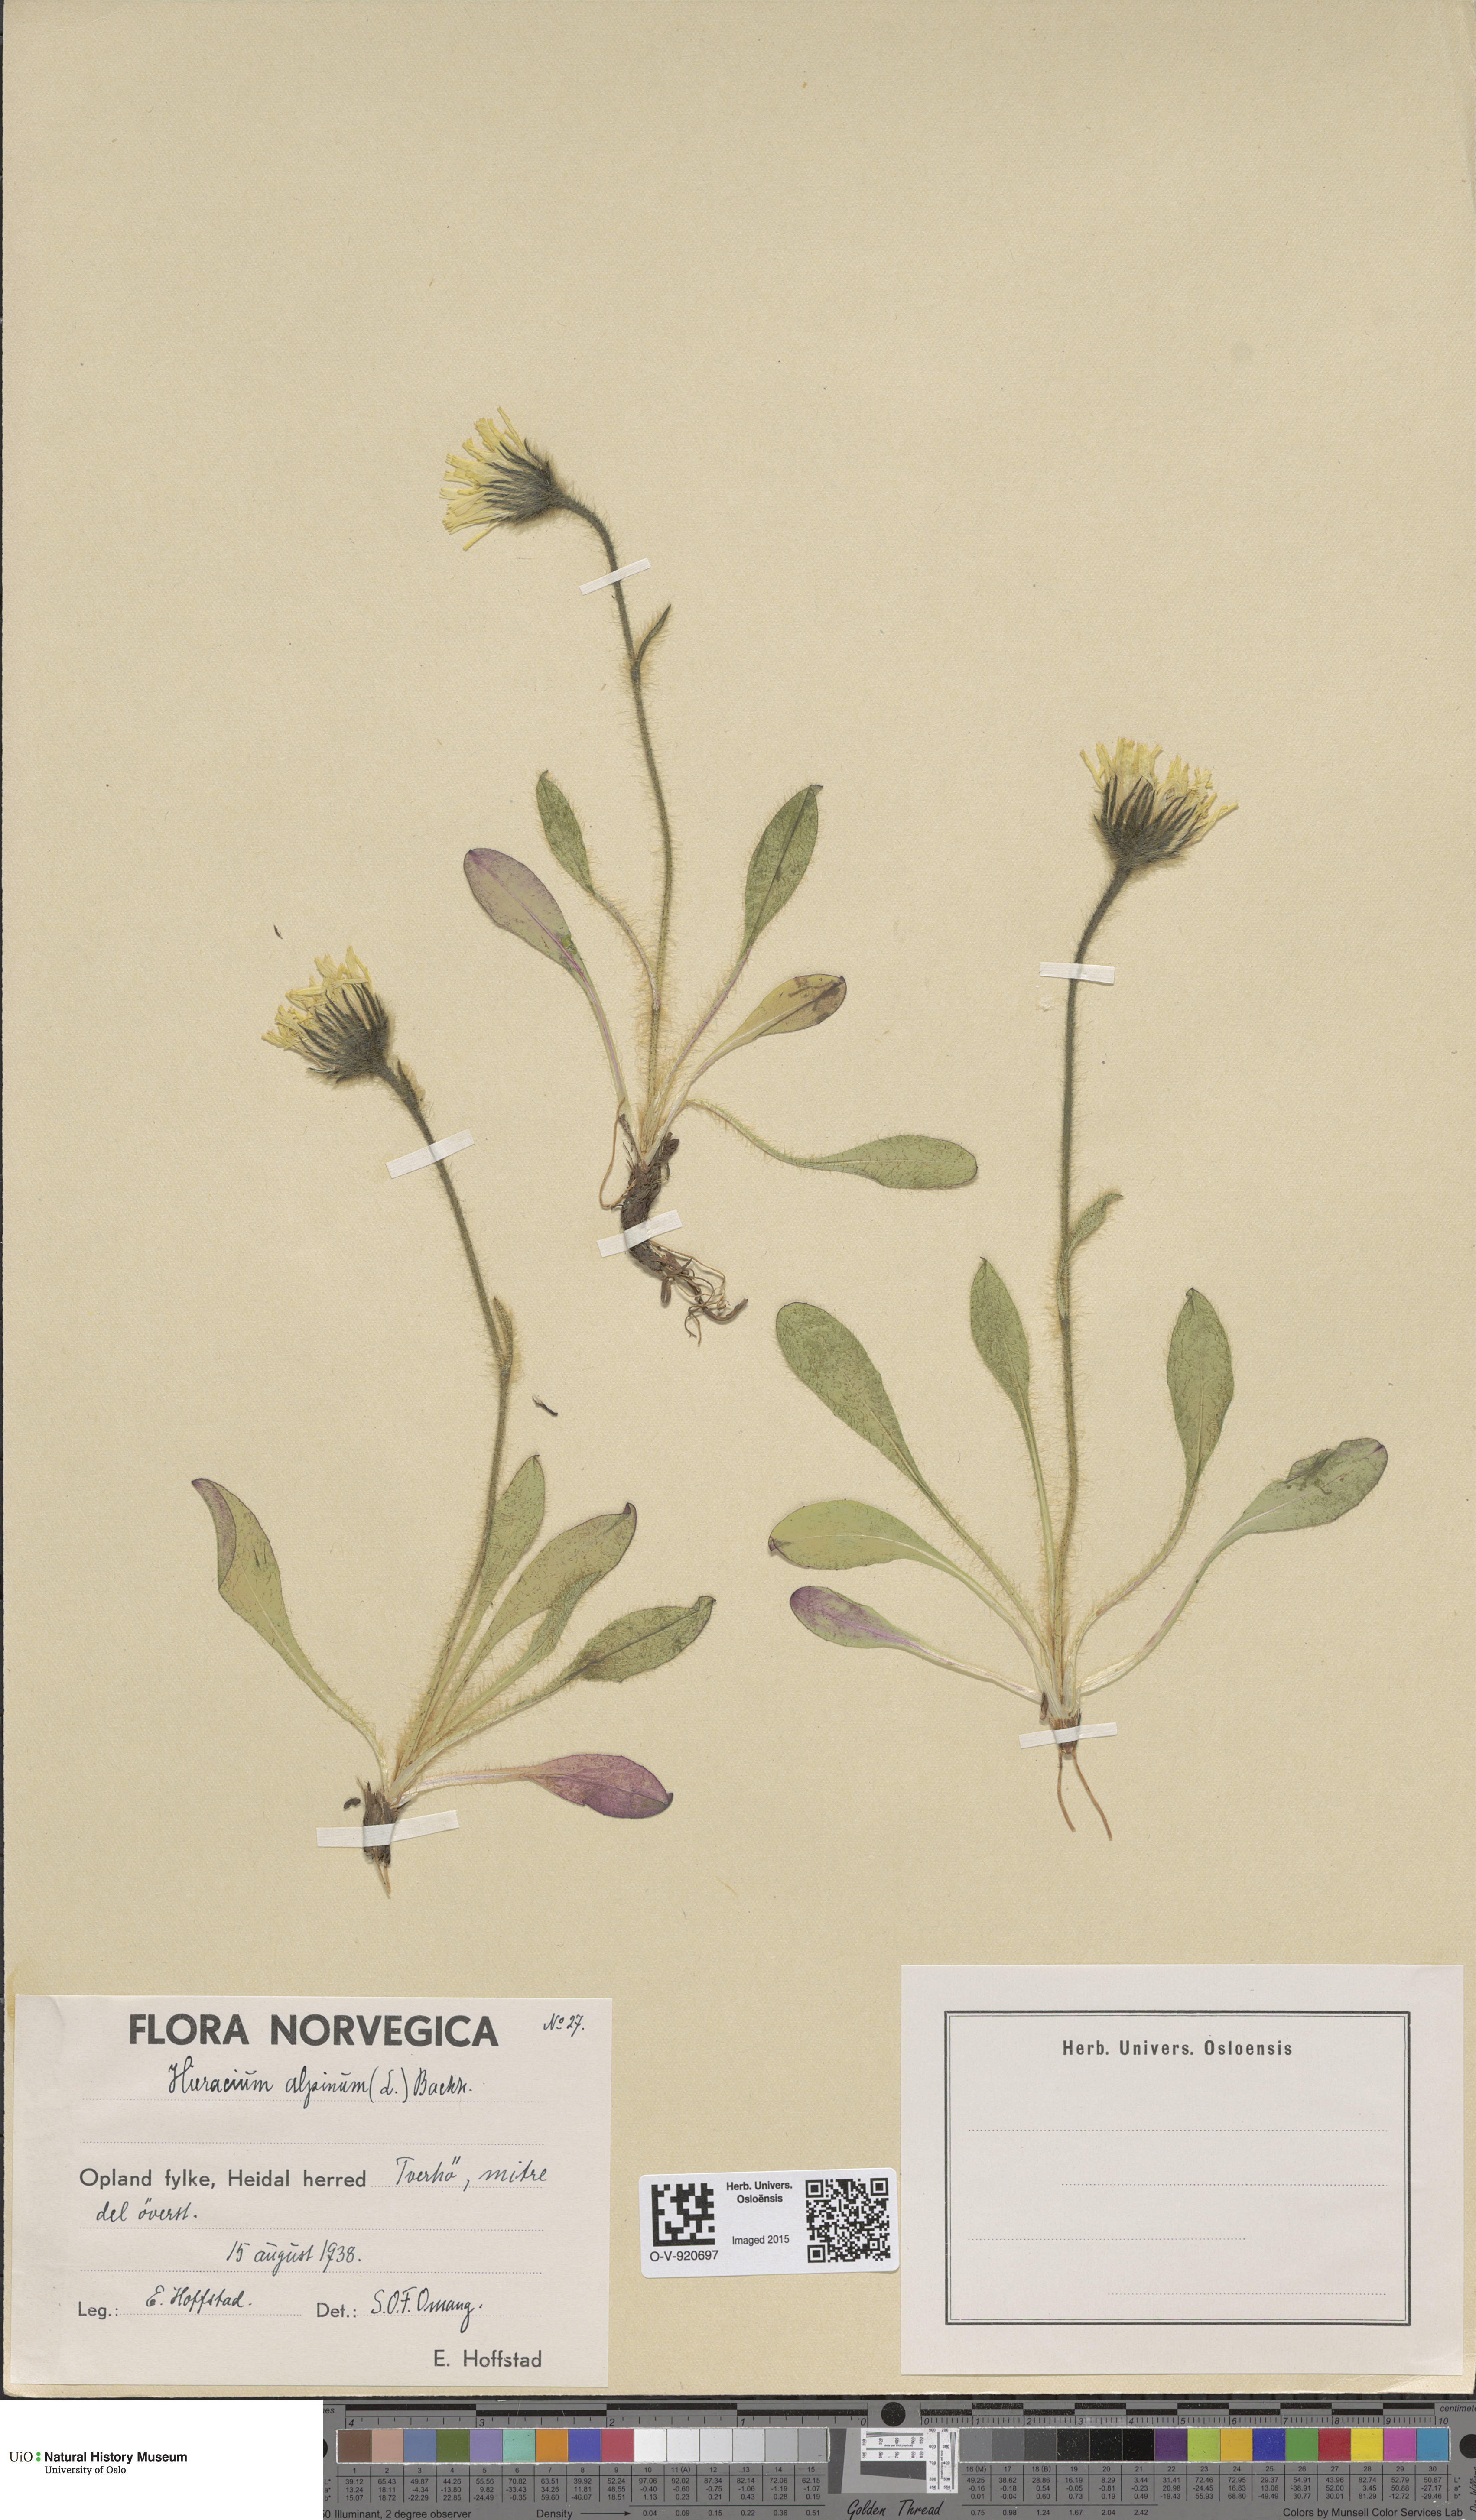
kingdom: Plantae
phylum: Tracheophyta
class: Magnoliopsida
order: Asterales
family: Asteraceae
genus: Hieracium
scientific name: Hieracium alpinum
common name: Alpine hawkweed
